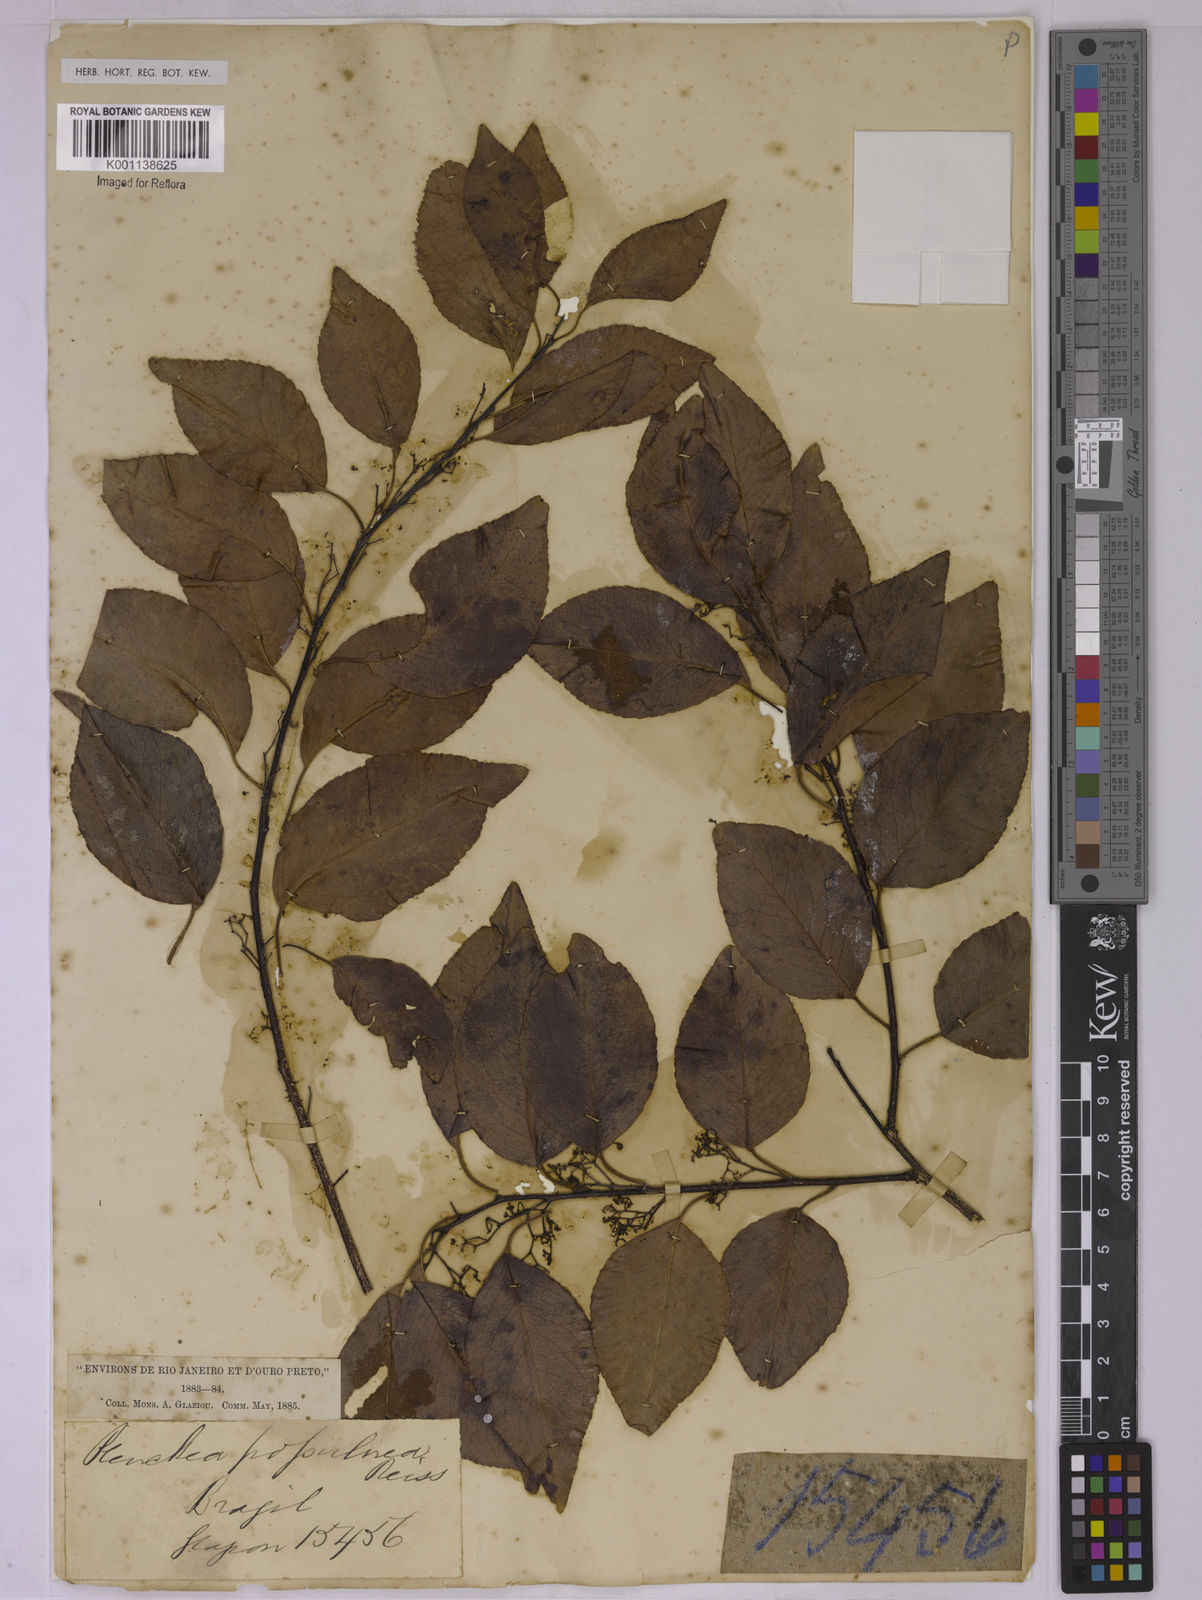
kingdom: Plantae
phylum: Tracheophyta
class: Magnoliopsida
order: Celastrales
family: Celastraceae
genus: Plenckia
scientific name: Plenckia populnea
